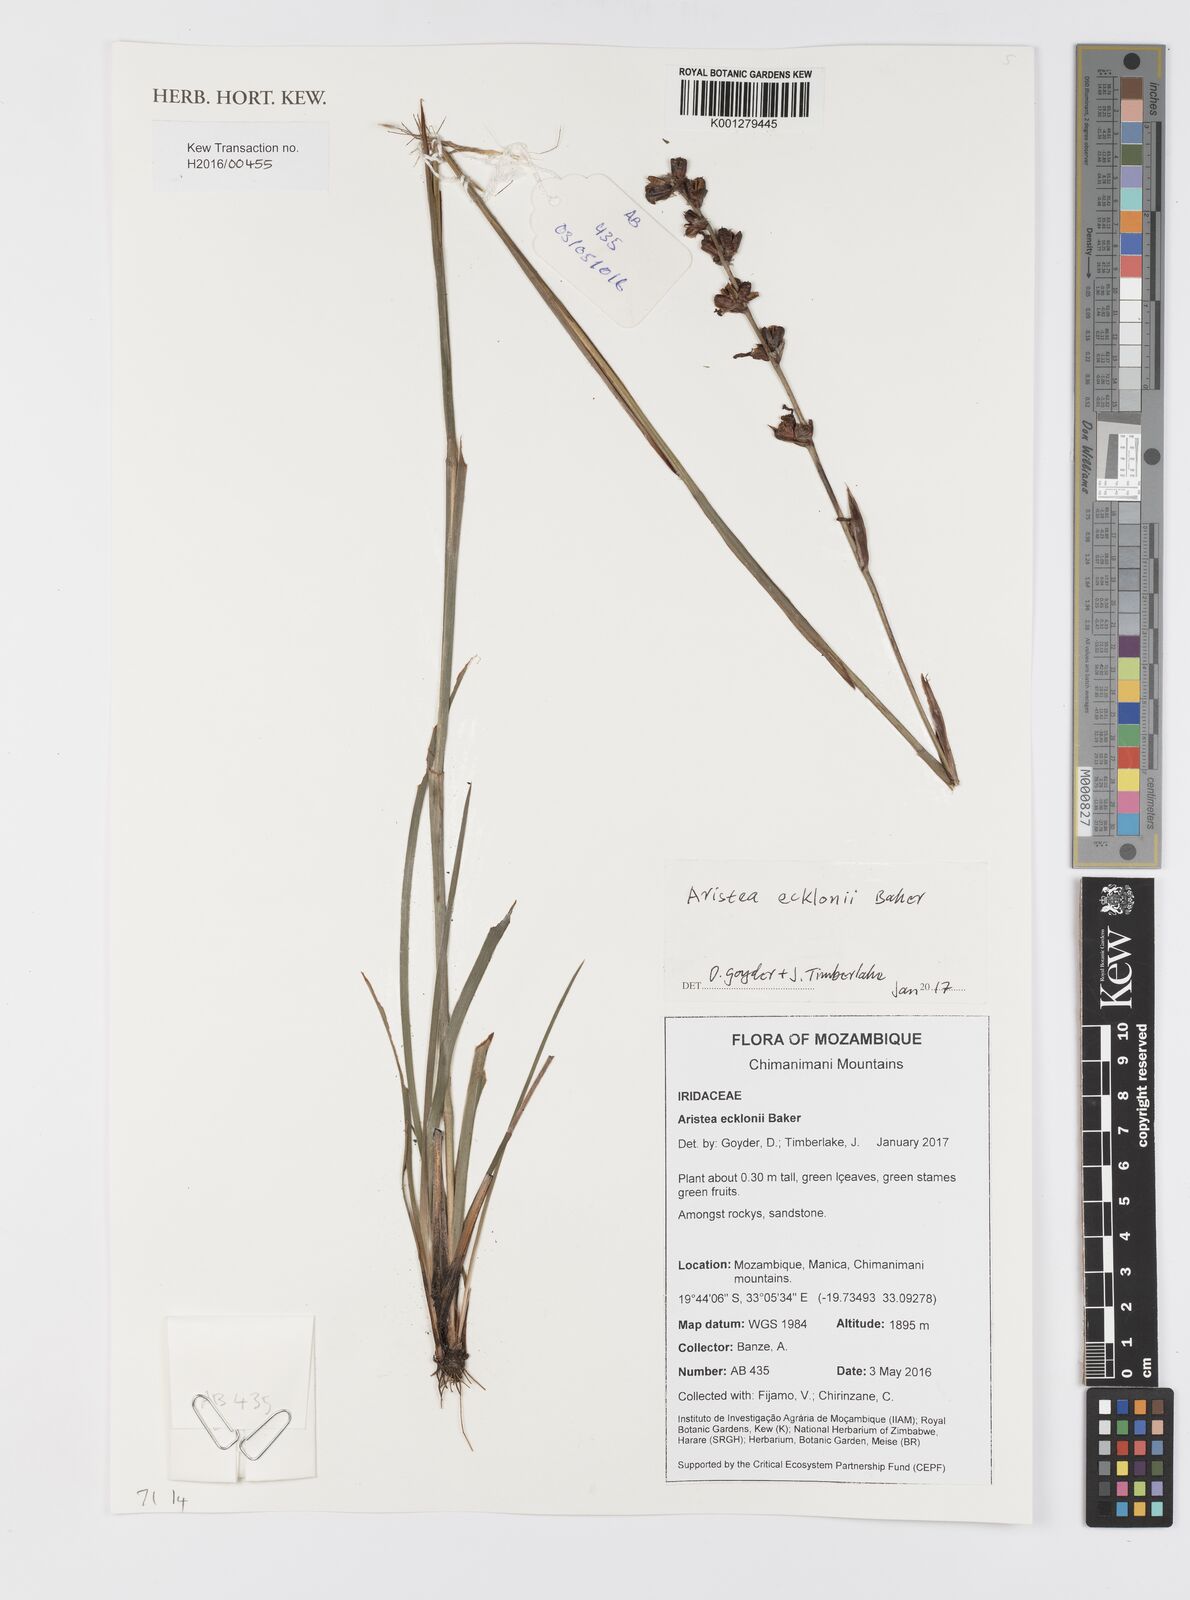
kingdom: Plantae
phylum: Tracheophyta
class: Liliopsida
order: Asparagales
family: Iridaceae
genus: Aristea
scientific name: Aristea ecklonii
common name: Blue corn-lily
